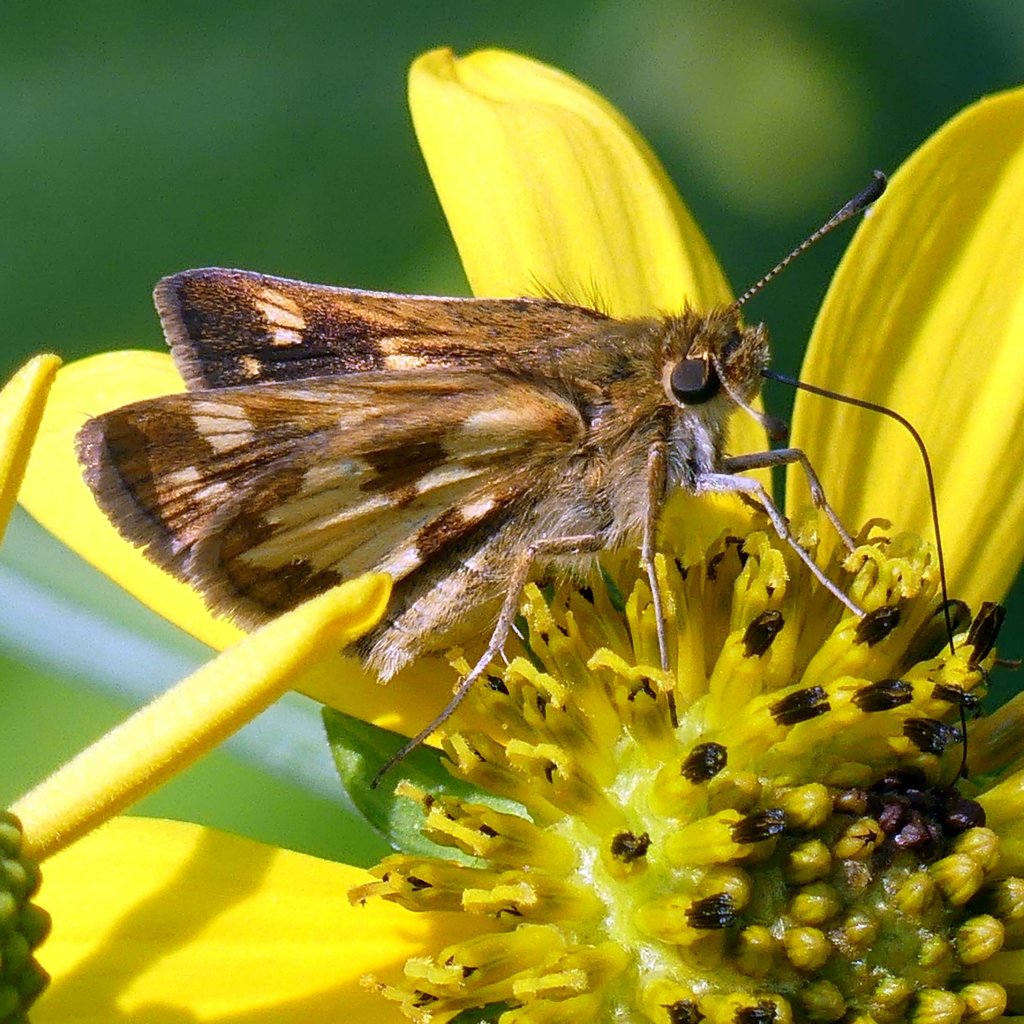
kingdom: Animalia
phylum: Arthropoda
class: Insecta
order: Lepidoptera
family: Hesperiidae
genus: Polites
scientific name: Polites coras
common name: Peck's Skipper
